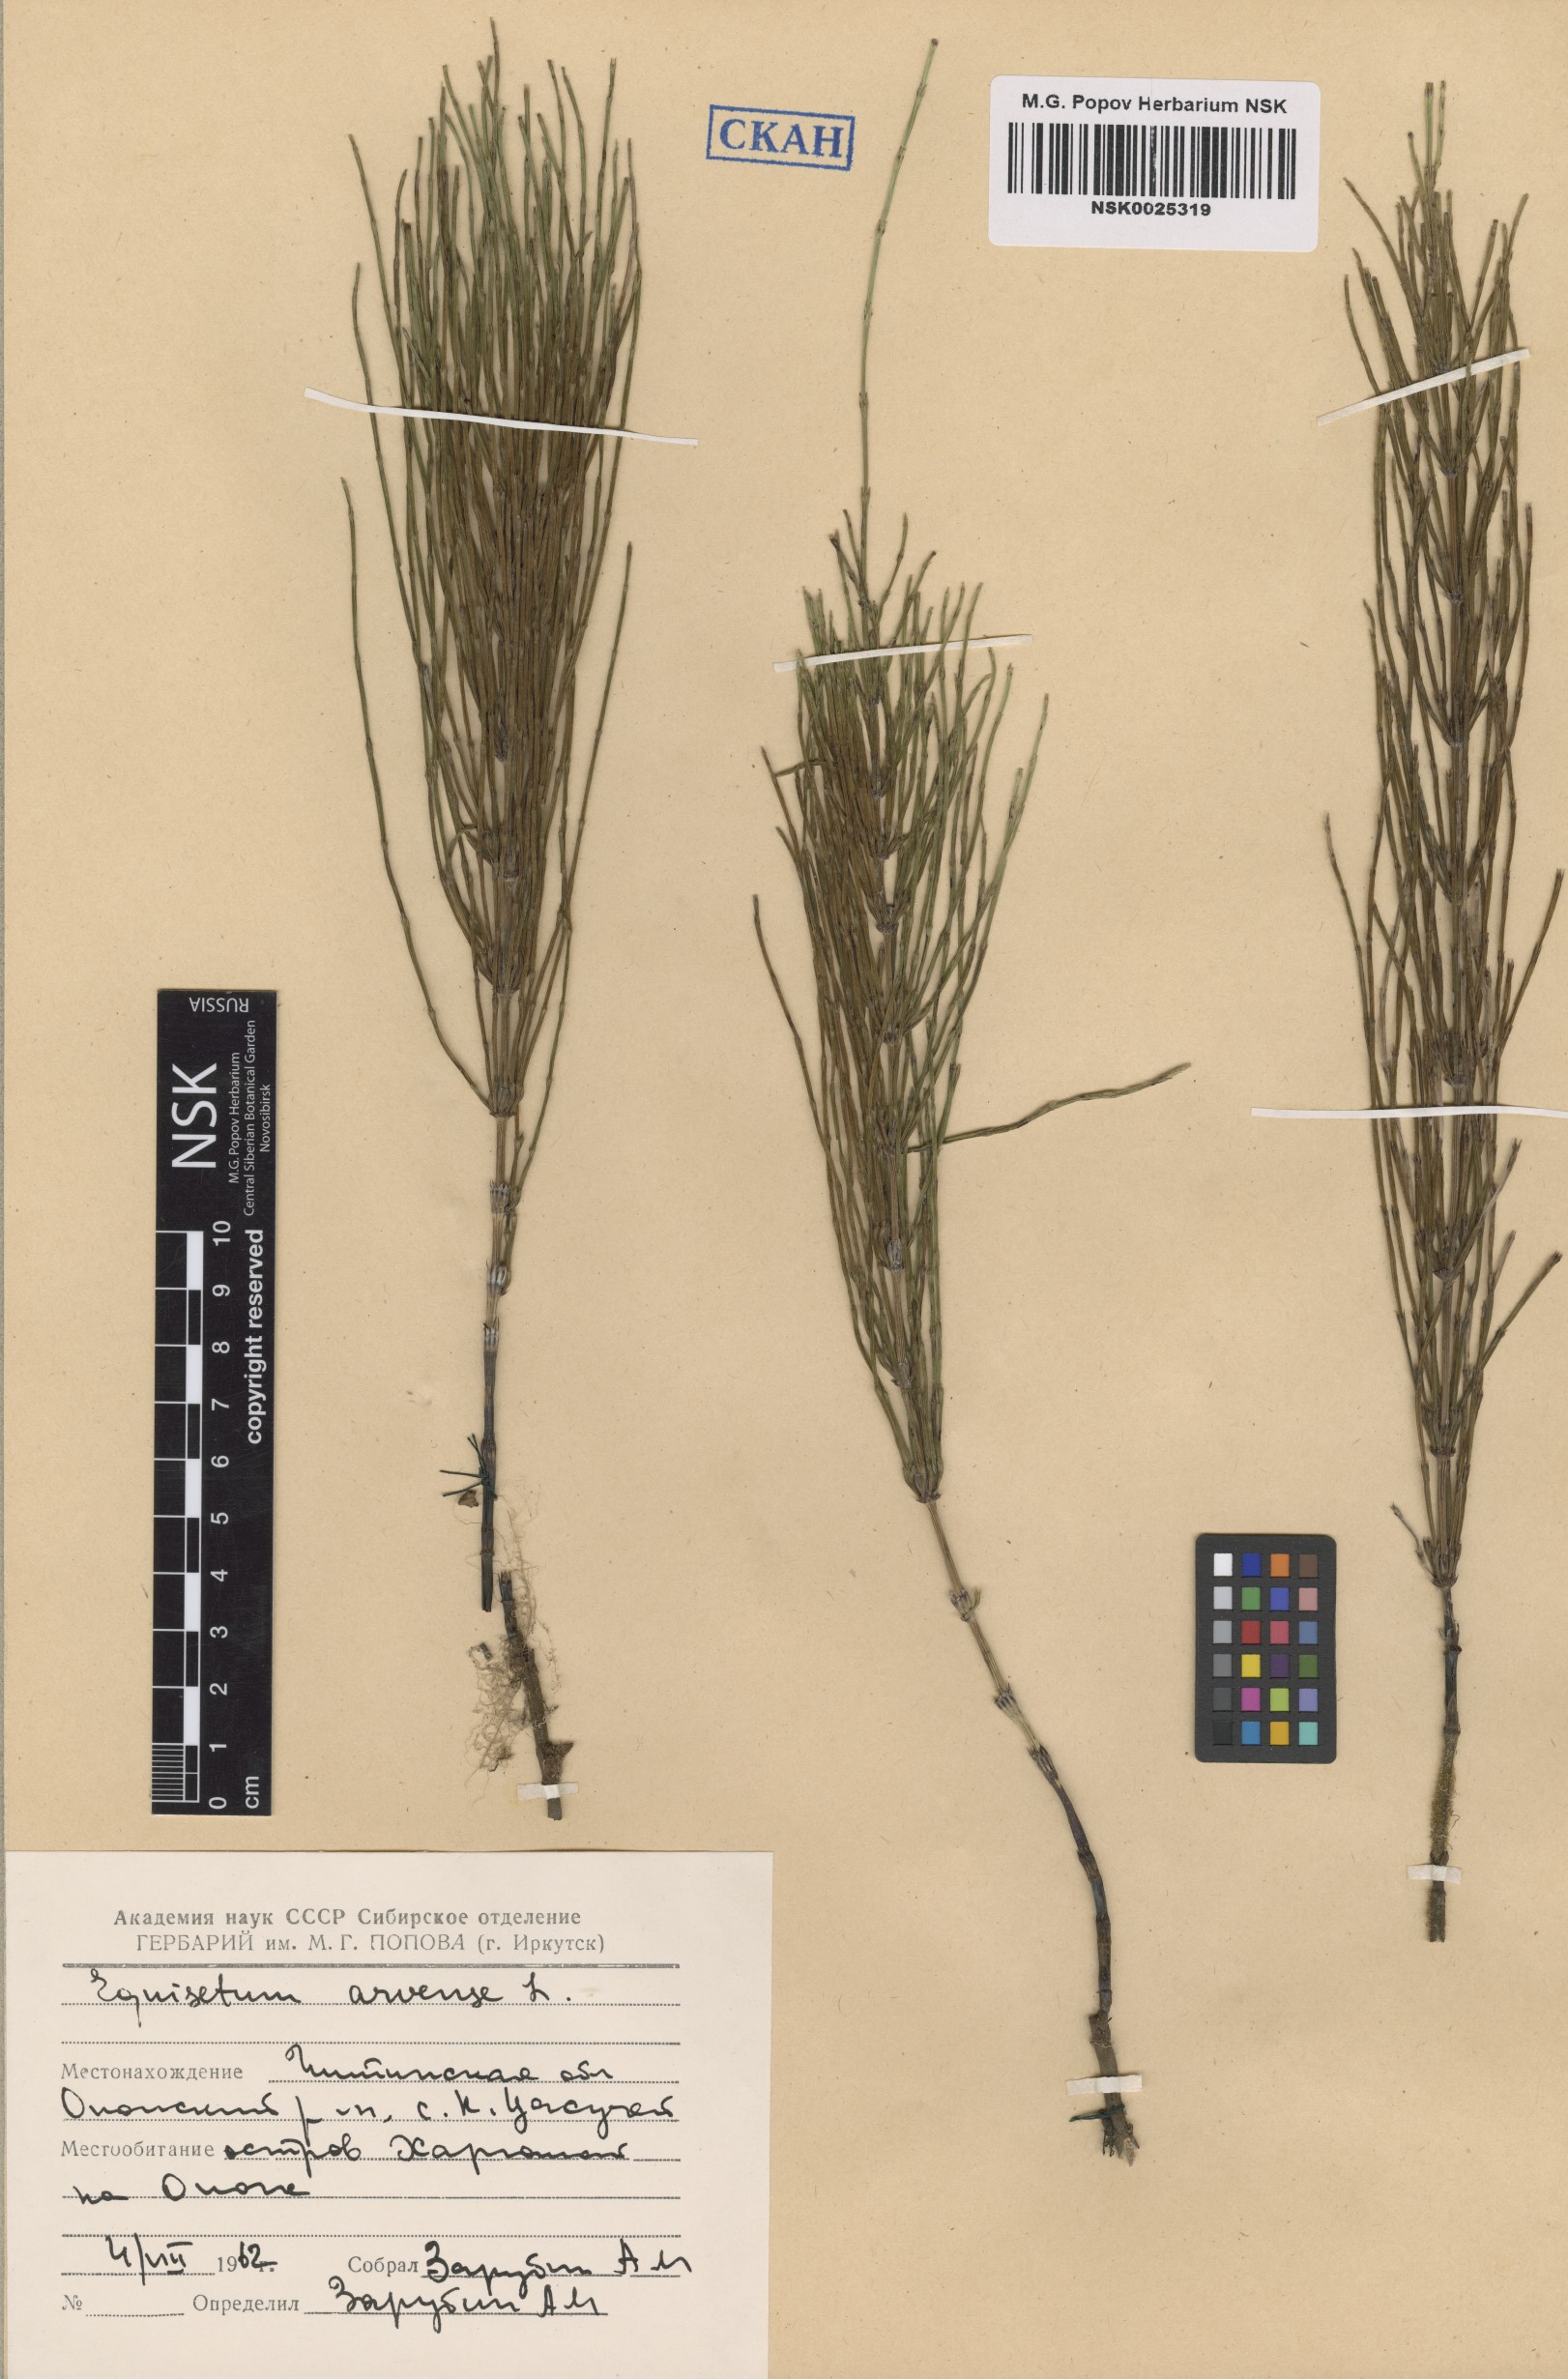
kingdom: Plantae
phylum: Tracheophyta
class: Polypodiopsida
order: Equisetales
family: Equisetaceae
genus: Equisetum
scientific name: Equisetum arvense
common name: Field horsetail
